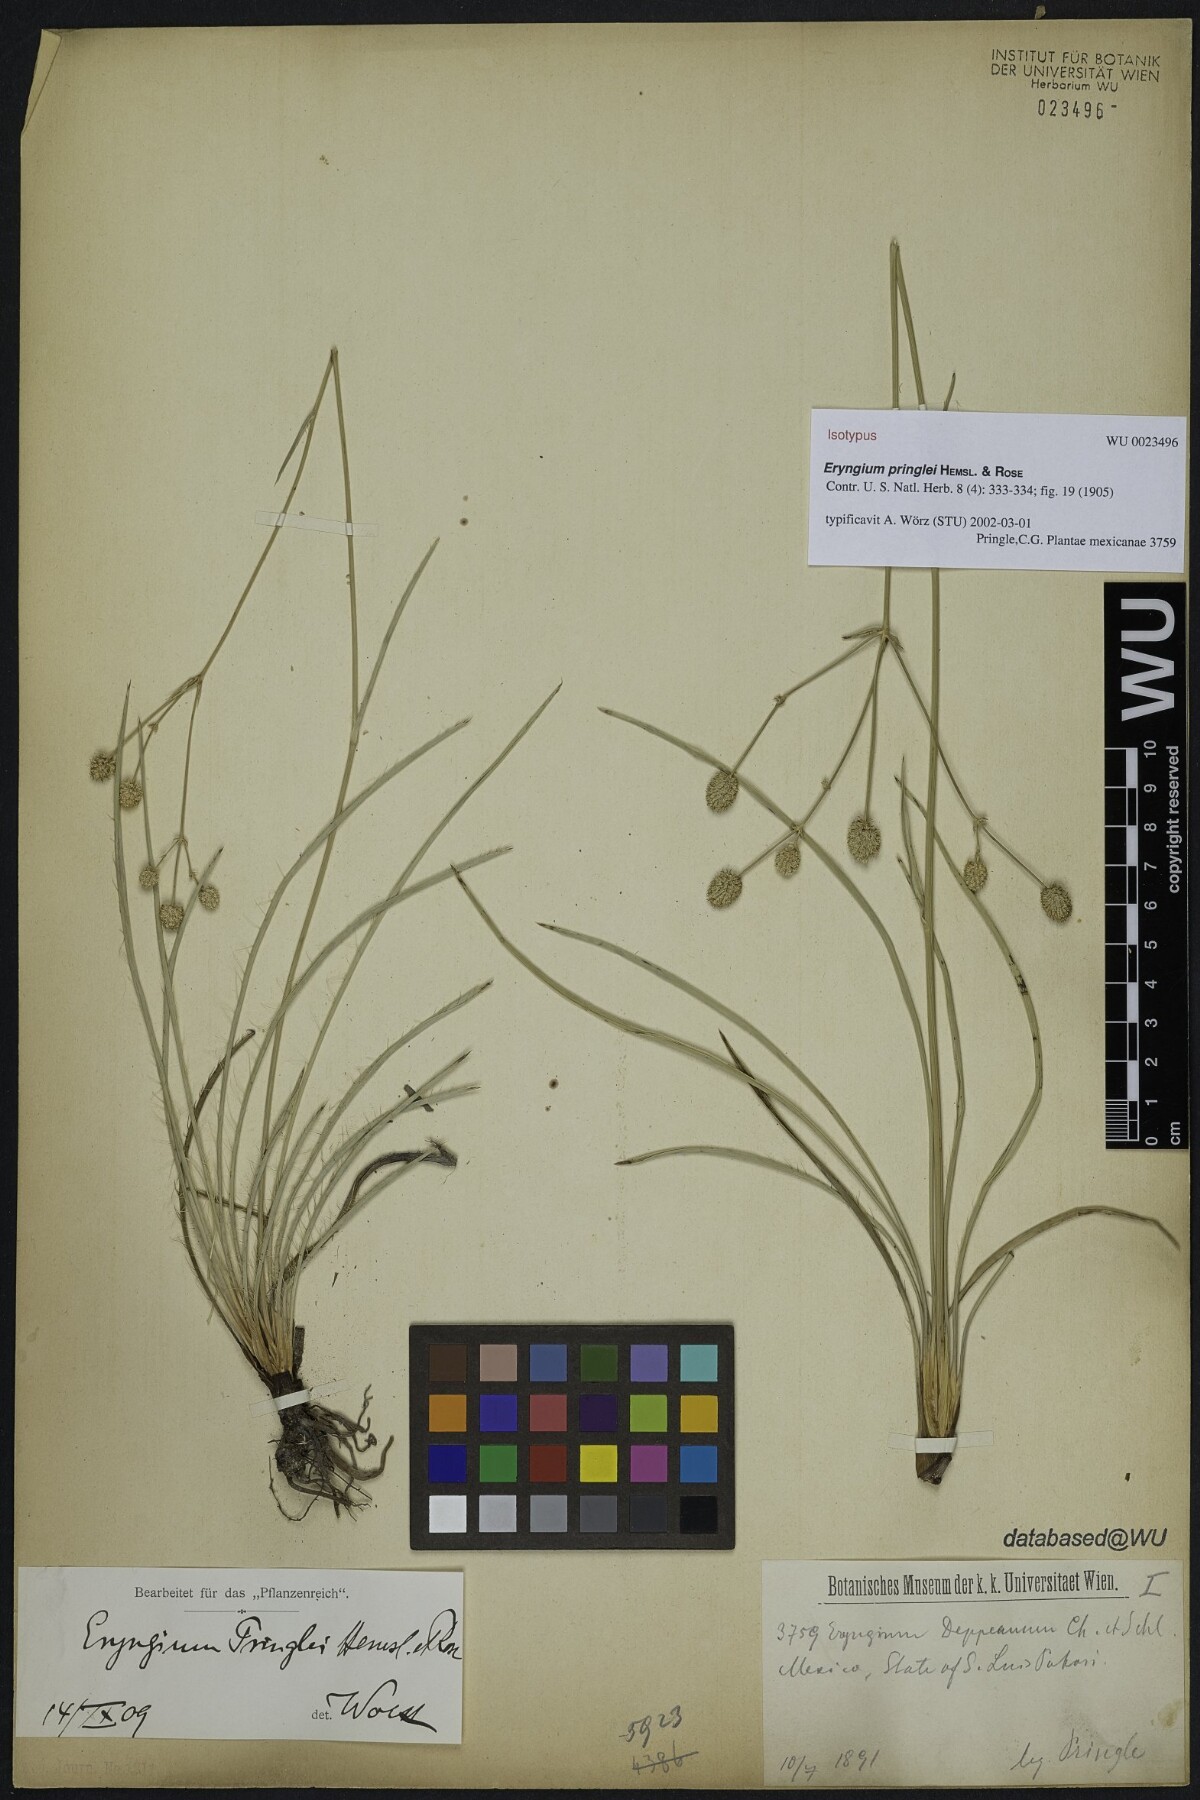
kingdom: Plantae
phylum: Tracheophyta
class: Magnoliopsida
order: Apiales
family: Apiaceae
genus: Eryngium
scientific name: Eryngium gramineum
